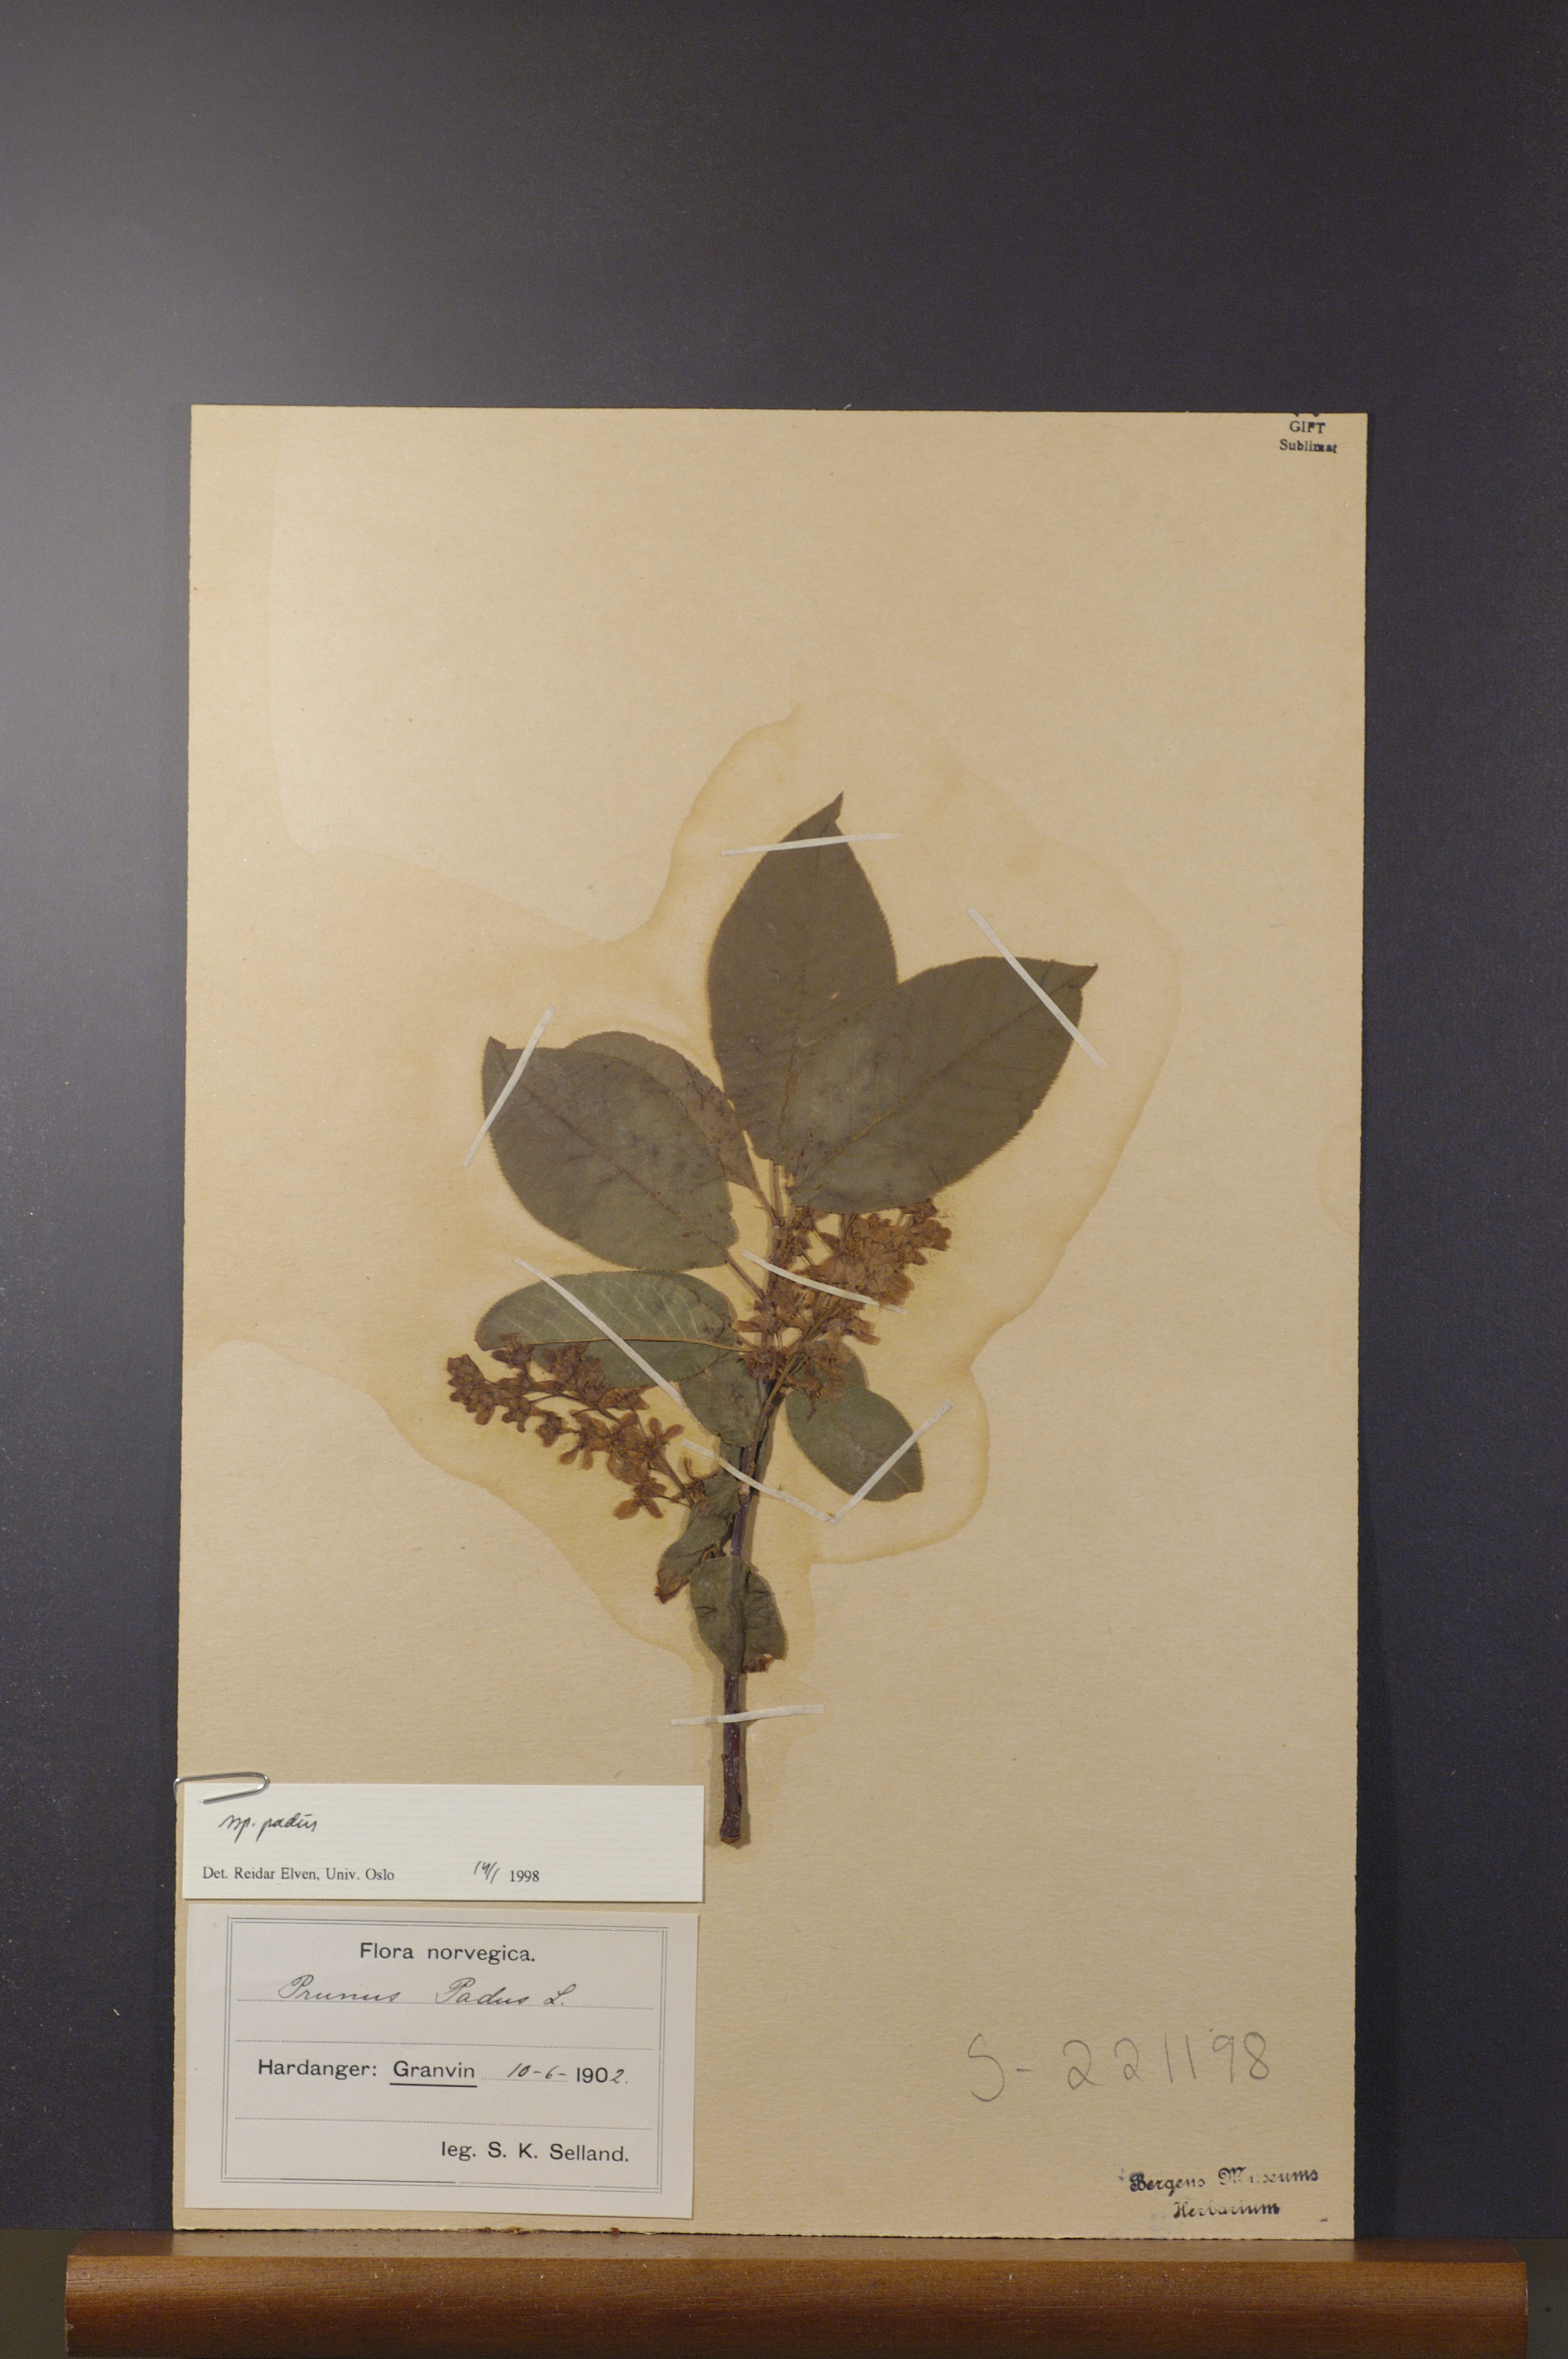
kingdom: Plantae
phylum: Tracheophyta
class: Magnoliopsida
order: Rosales
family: Rosaceae
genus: Prunus
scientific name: Prunus padus
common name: Bird cherry
